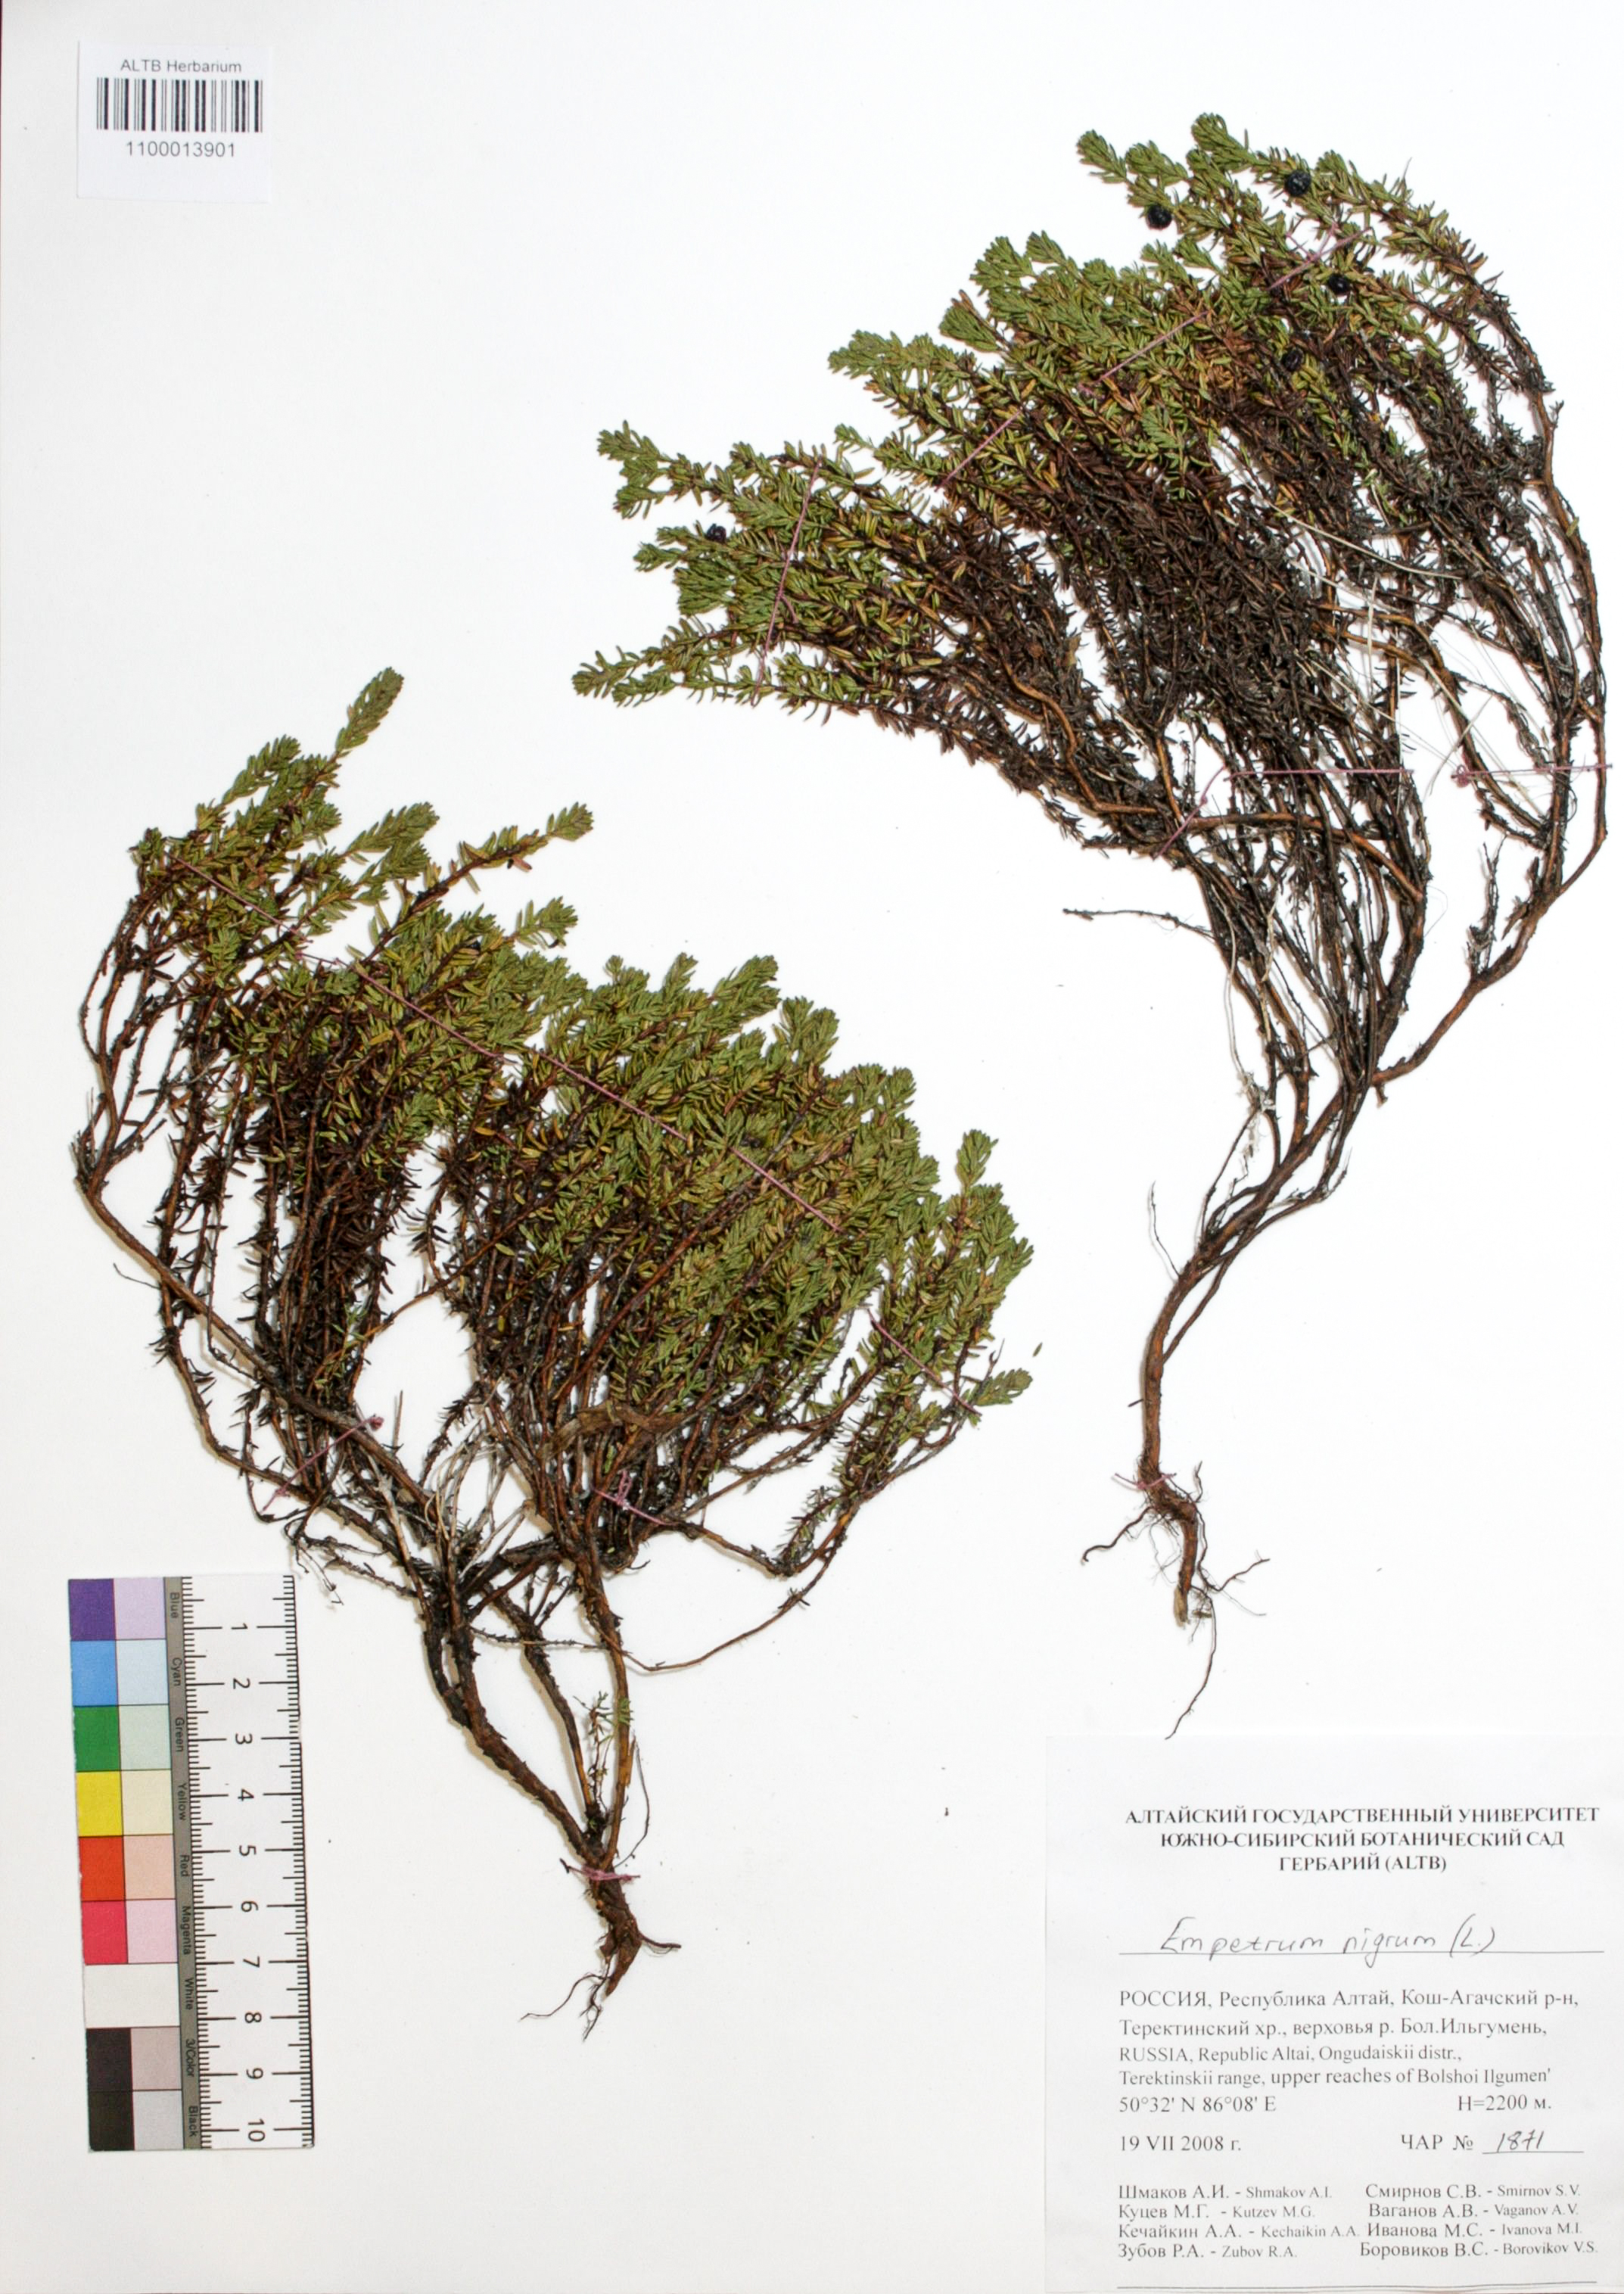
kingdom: Plantae
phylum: Tracheophyta
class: Magnoliopsida
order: Ericales
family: Ericaceae
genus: Empetrum
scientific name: Empetrum nigrum
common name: Black crowberry
